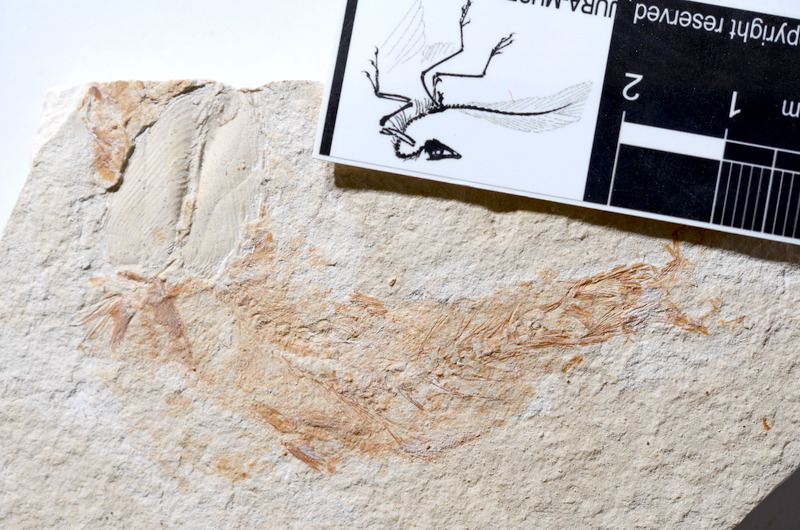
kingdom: Animalia
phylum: Chordata
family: Ascalaboidae
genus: Tharsis
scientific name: Tharsis dubius
